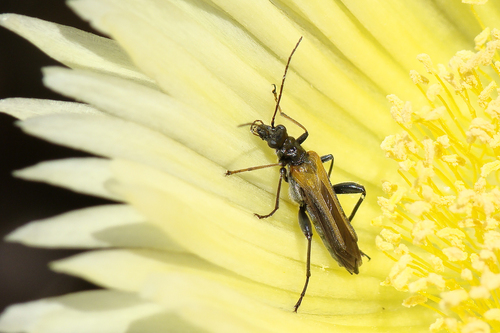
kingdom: Animalia
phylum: Arthropoda
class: Insecta
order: Coleoptera
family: Oedemeridae
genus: Oedemera
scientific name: Oedemera simplex
